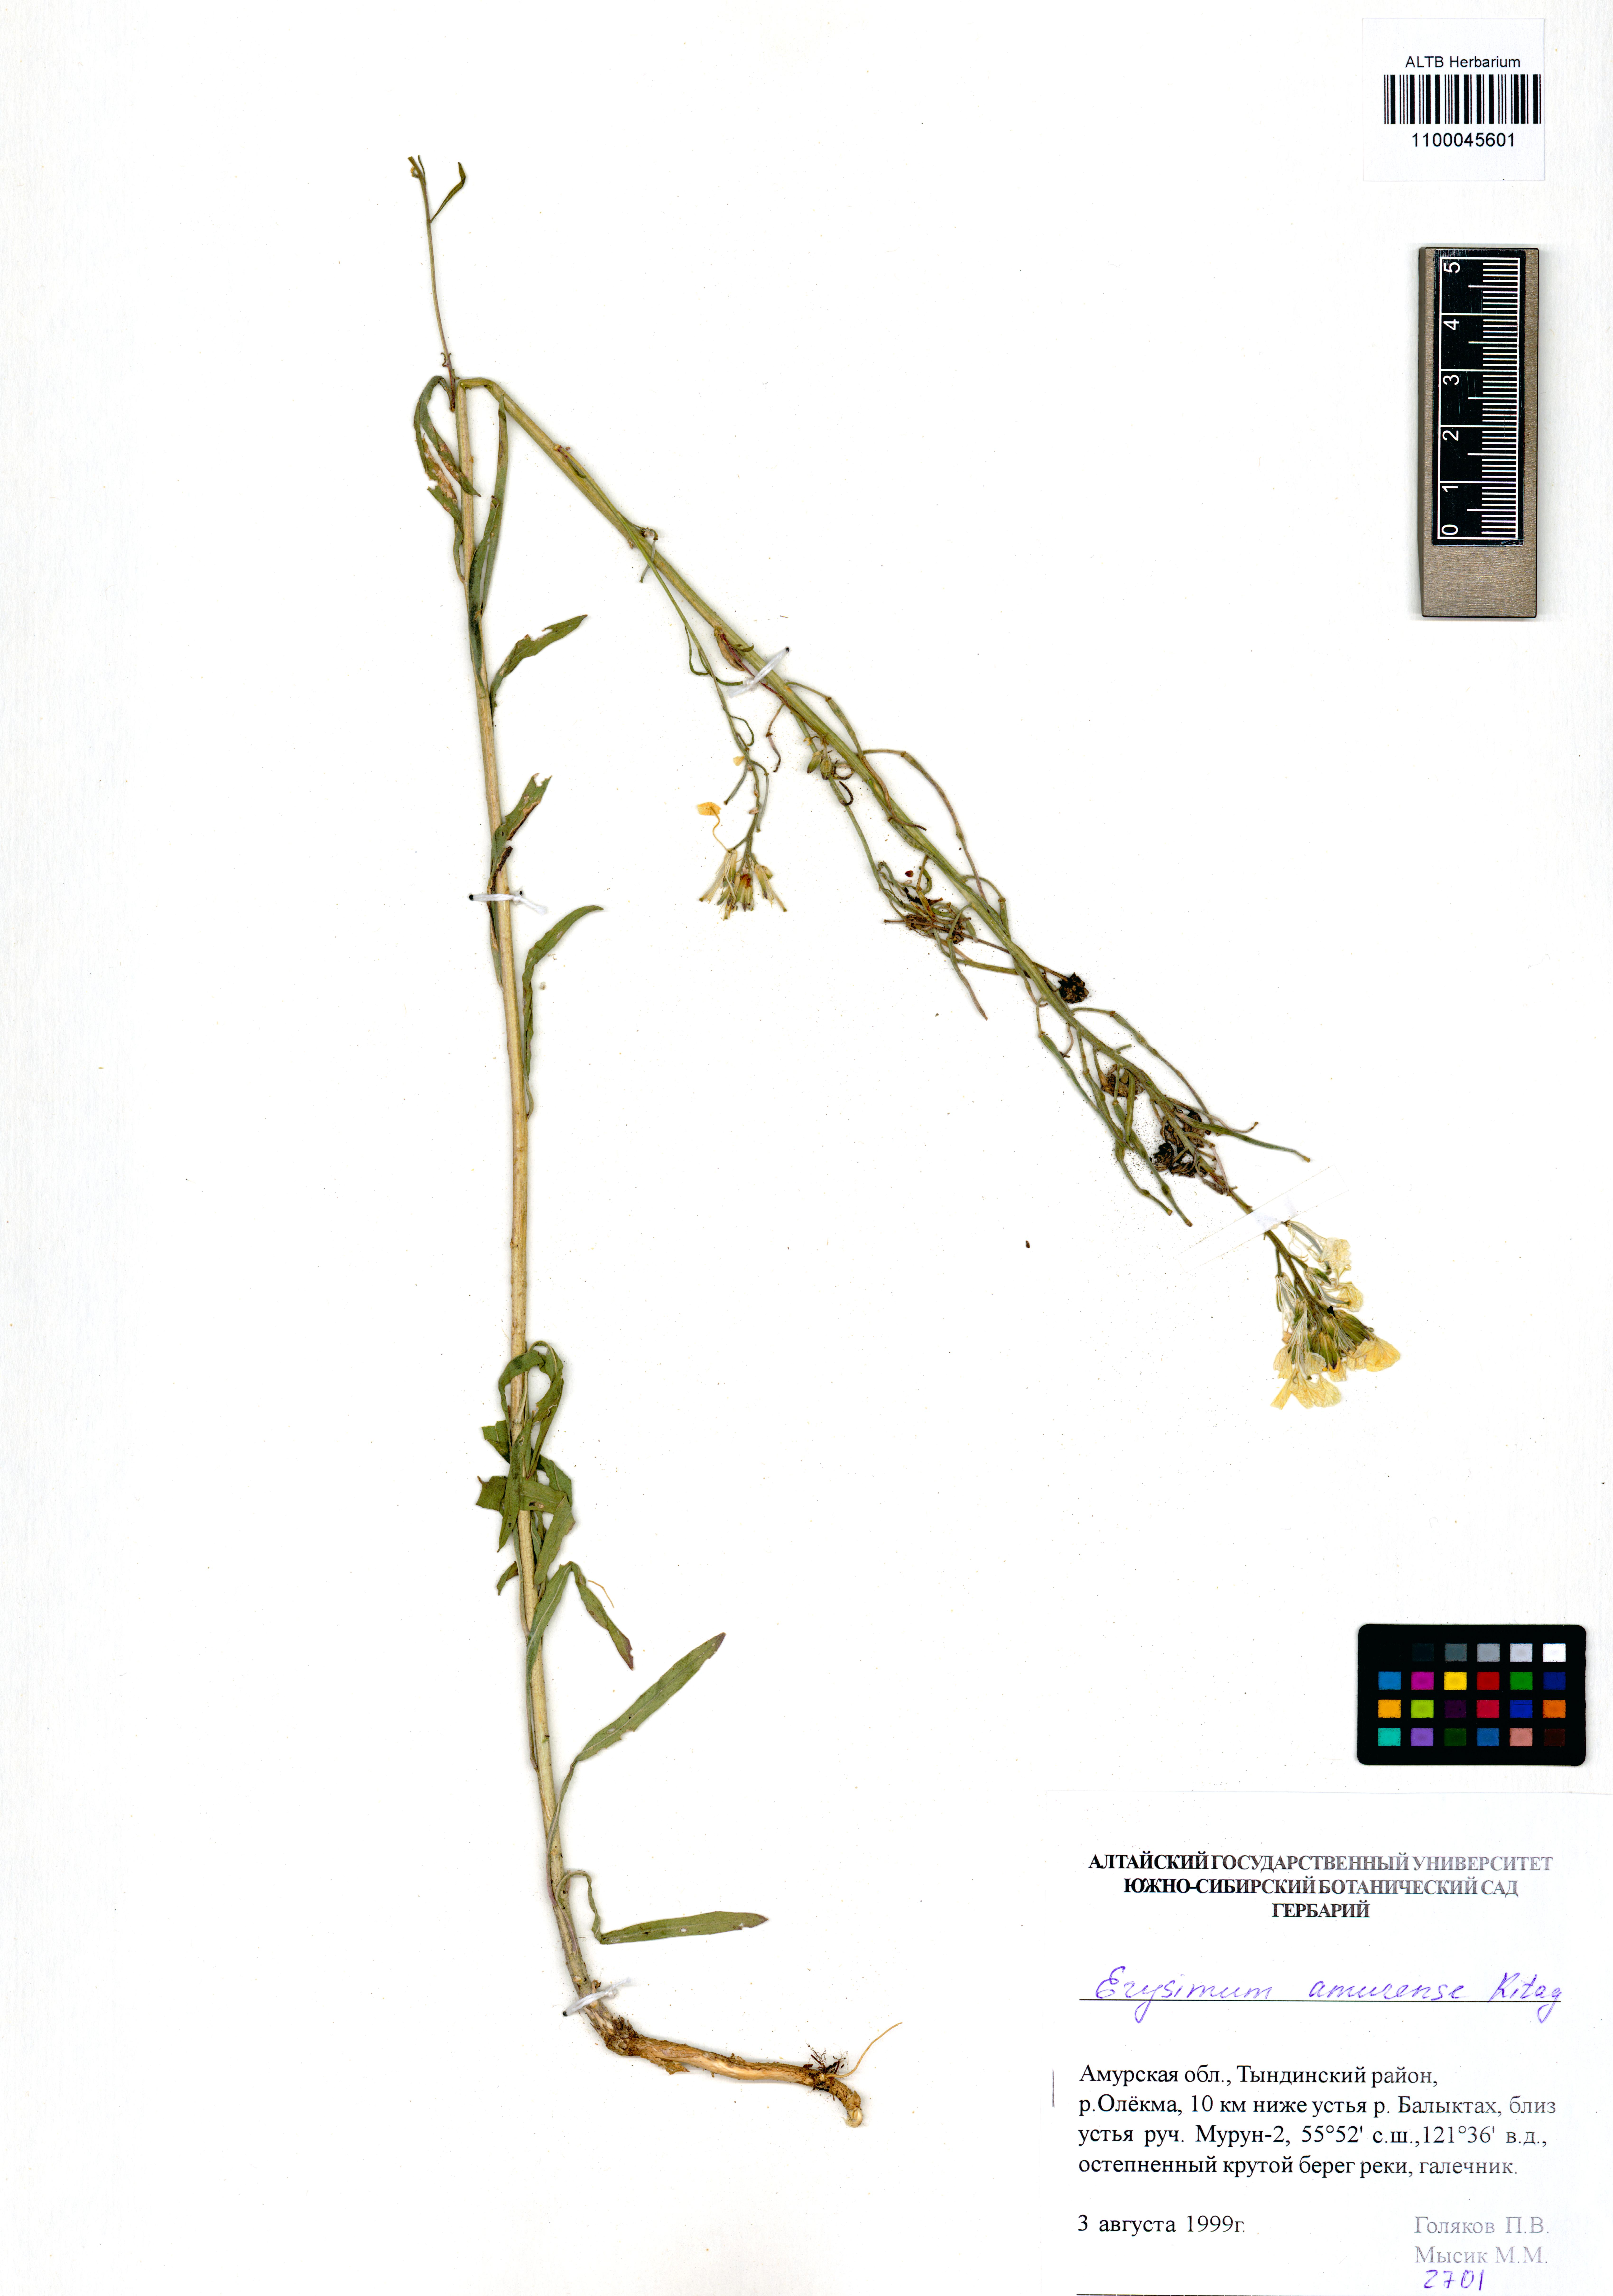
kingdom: Plantae
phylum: Tracheophyta
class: Magnoliopsida
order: Brassicales
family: Brassicaceae
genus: Erysimum
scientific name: Erysimum amurense
